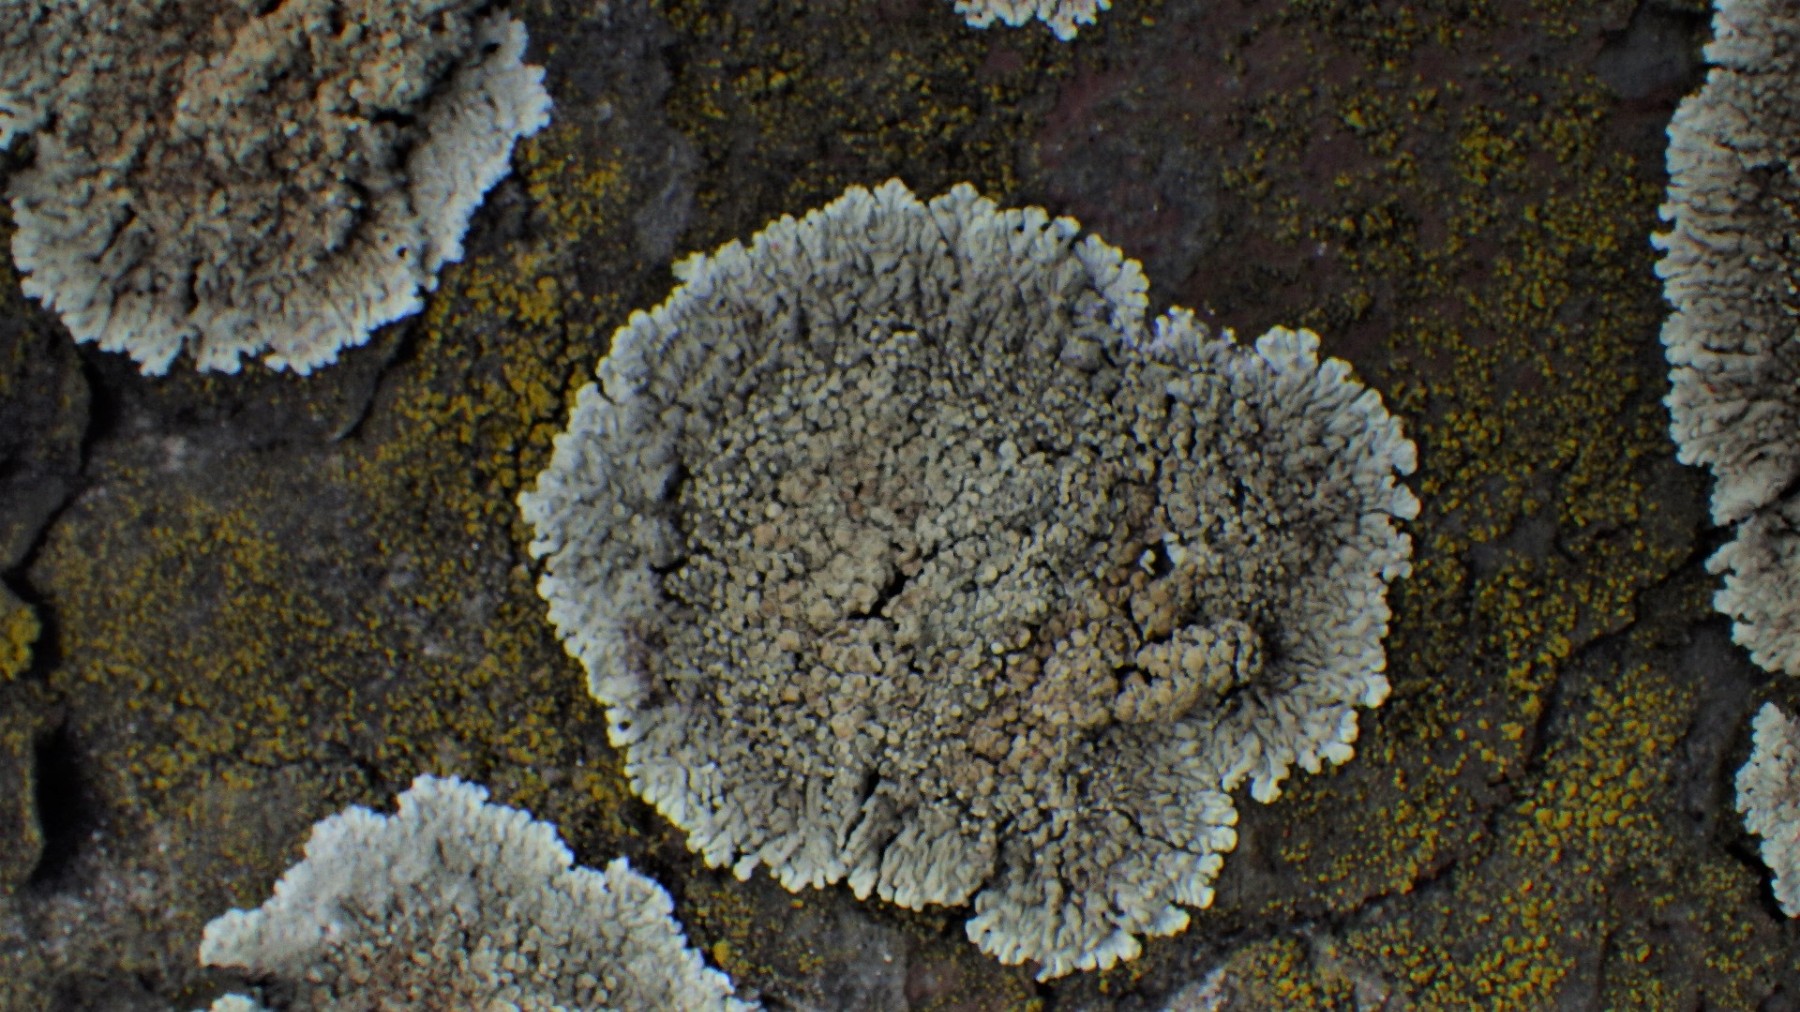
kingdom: Fungi
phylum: Ascomycota
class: Lecanoromycetes
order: Lecanorales
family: Lecanoraceae
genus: Protoparmeliopsis
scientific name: Protoparmeliopsis muralis
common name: randfliget kantskivelav
